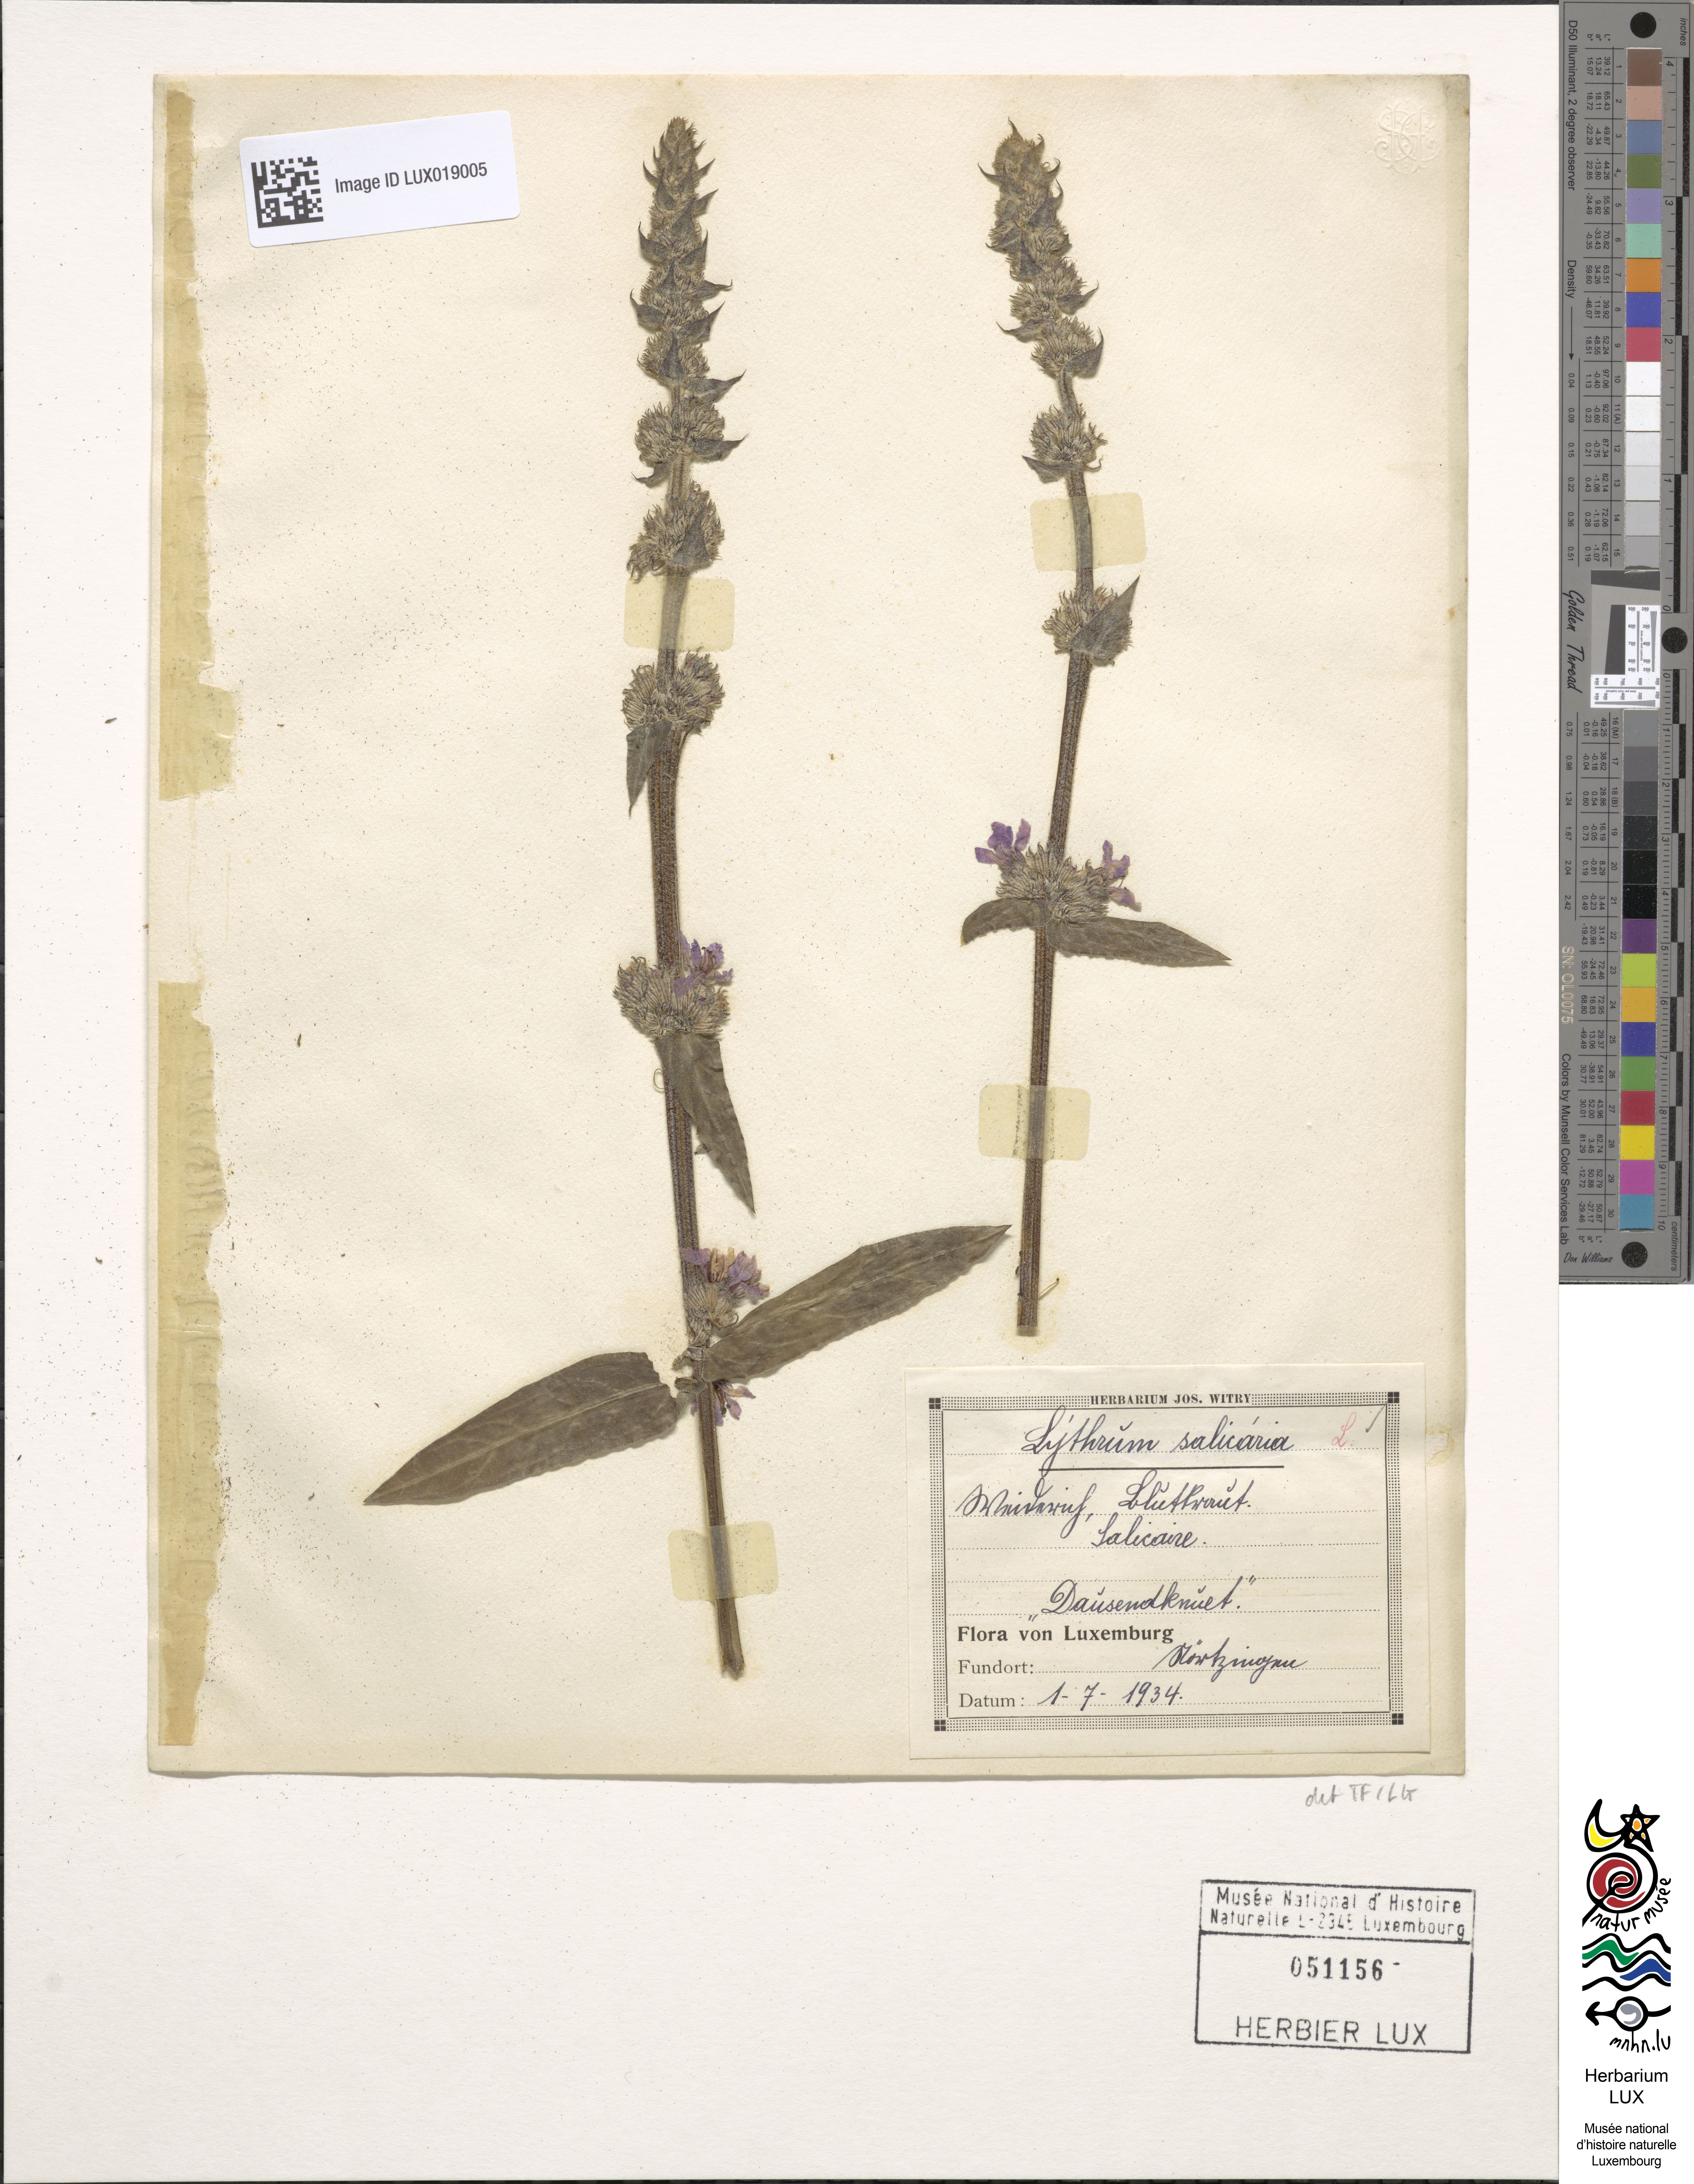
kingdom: Plantae
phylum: Tracheophyta
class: Magnoliopsida
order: Myrtales
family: Lythraceae
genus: Lythrum
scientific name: Lythrum salicaria
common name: Purple loosestrife
